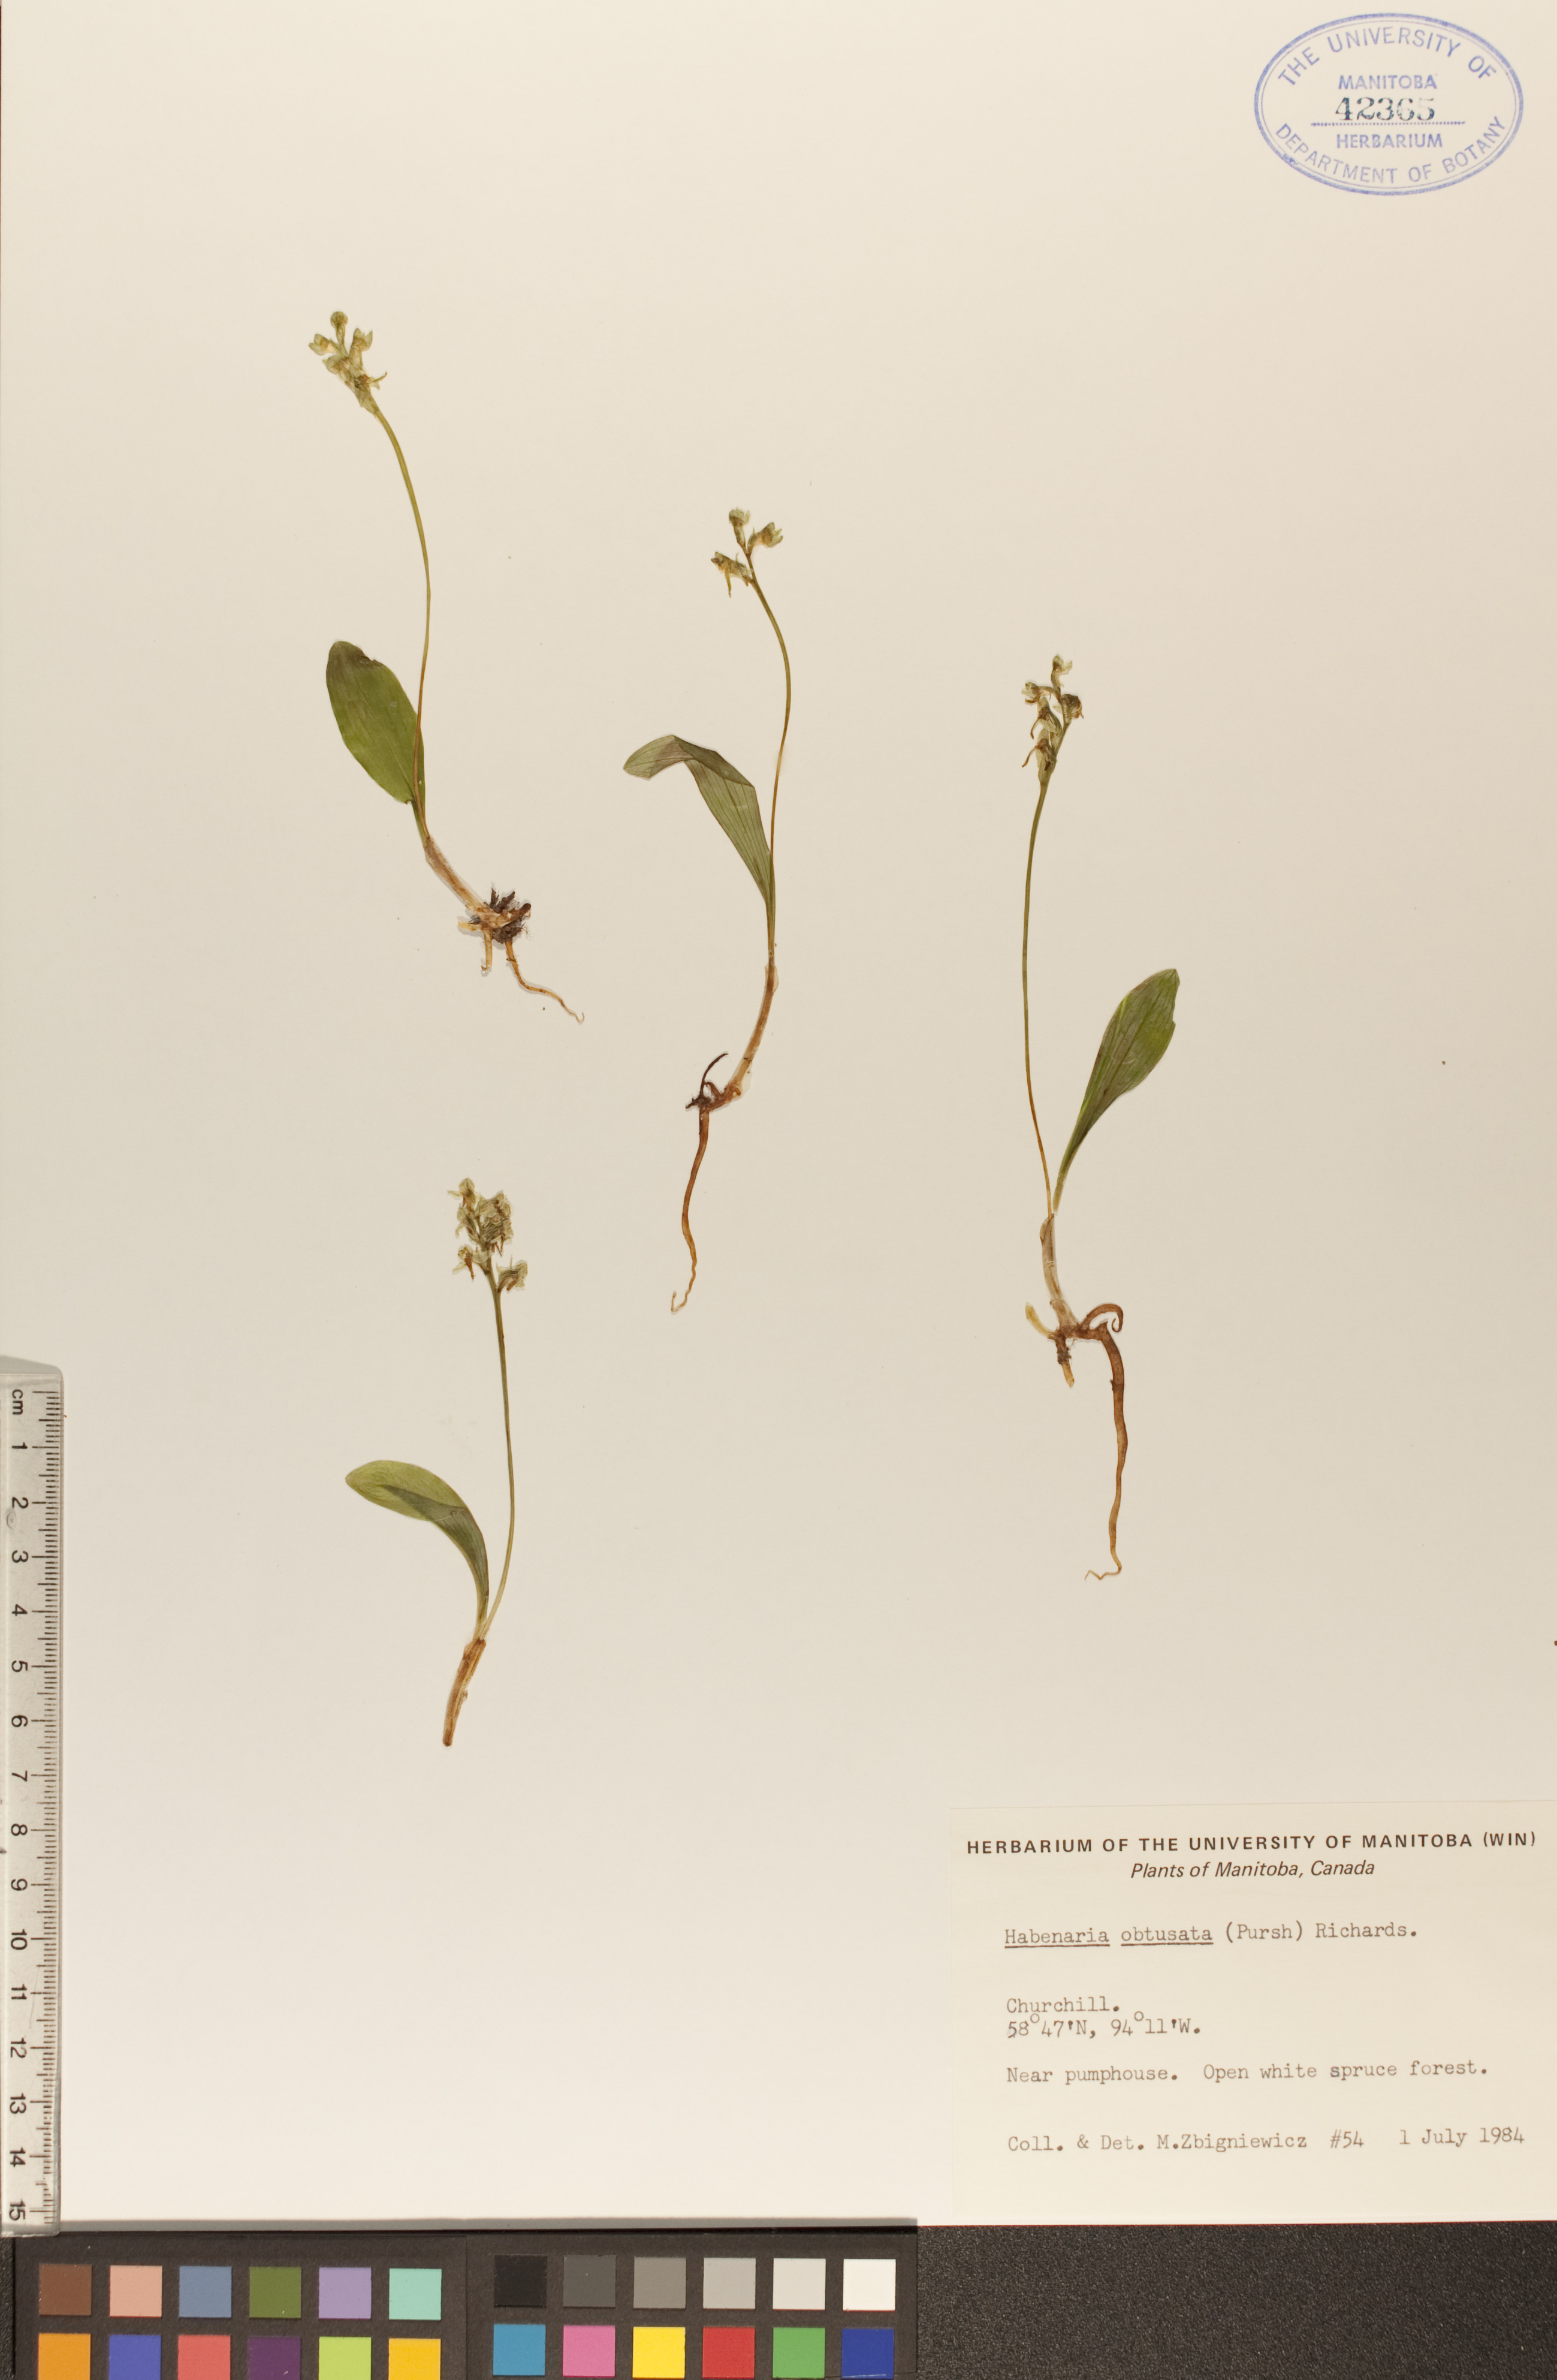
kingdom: Plantae
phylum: Tracheophyta
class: Liliopsida
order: Asparagales
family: Orchidaceae
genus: Platanthera
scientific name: Platanthera obtusata
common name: Blunt bog orchid
